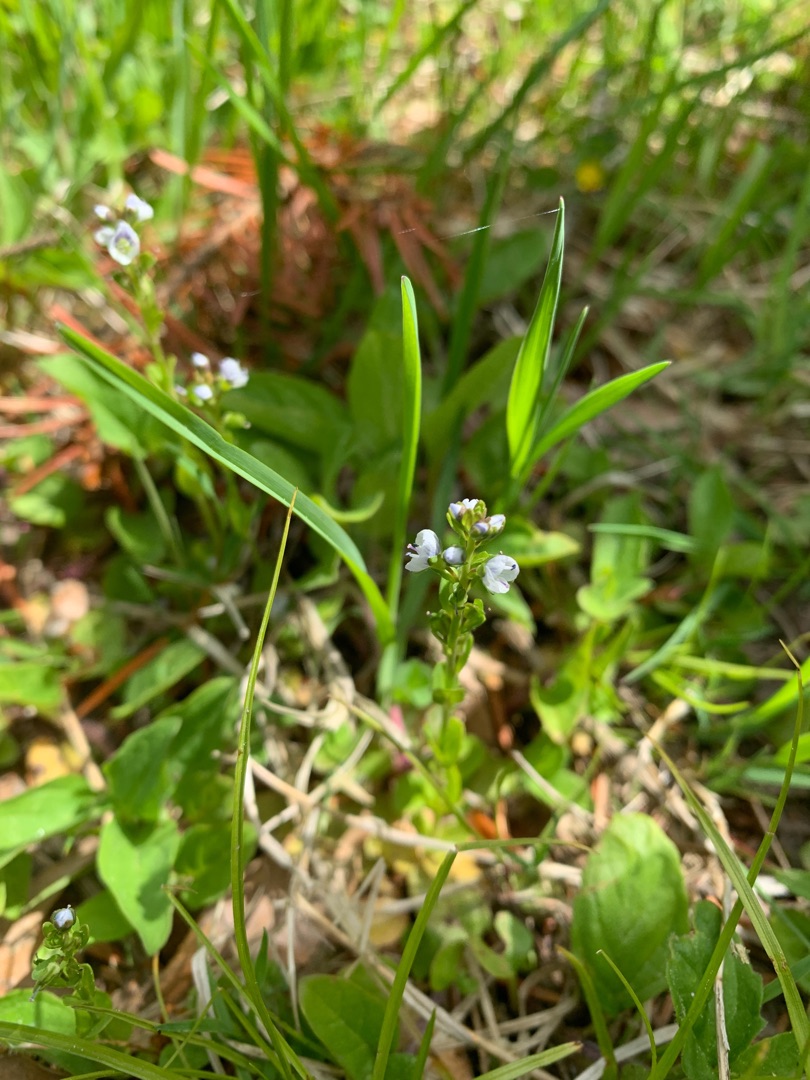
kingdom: Plantae
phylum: Tracheophyta
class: Magnoliopsida
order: Lamiales
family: Plantaginaceae
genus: Veronica
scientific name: Veronica serpyllifolia
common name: Glat ærenpris
